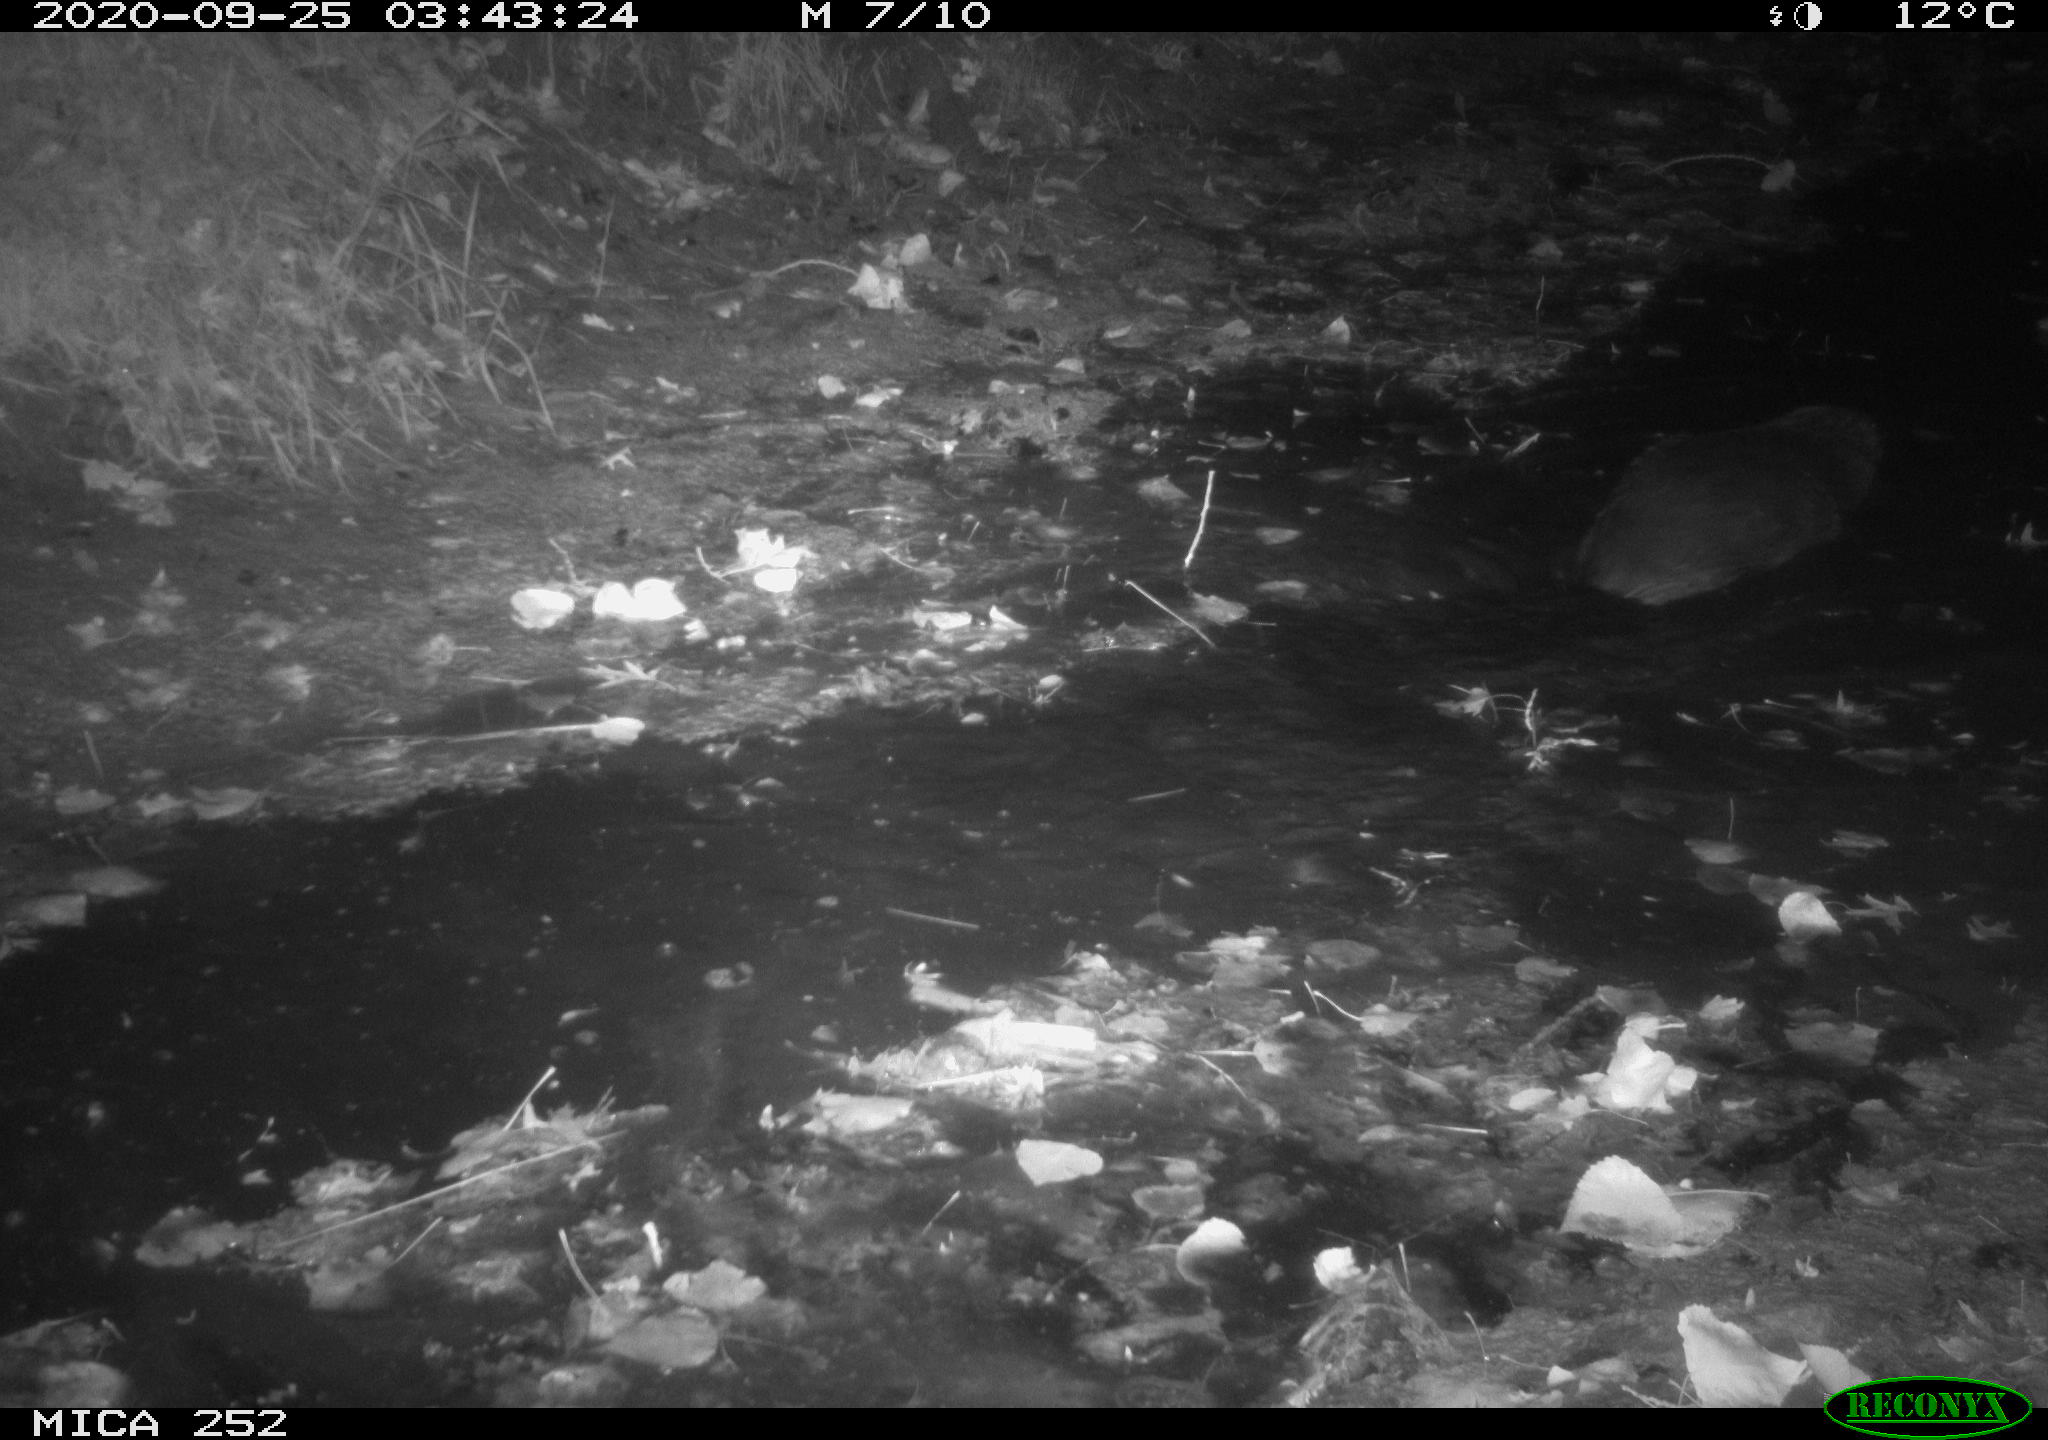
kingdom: Animalia
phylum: Chordata
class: Mammalia
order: Rodentia
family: Castoridae
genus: Castor
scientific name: Castor fiber
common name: Eurasian beaver
